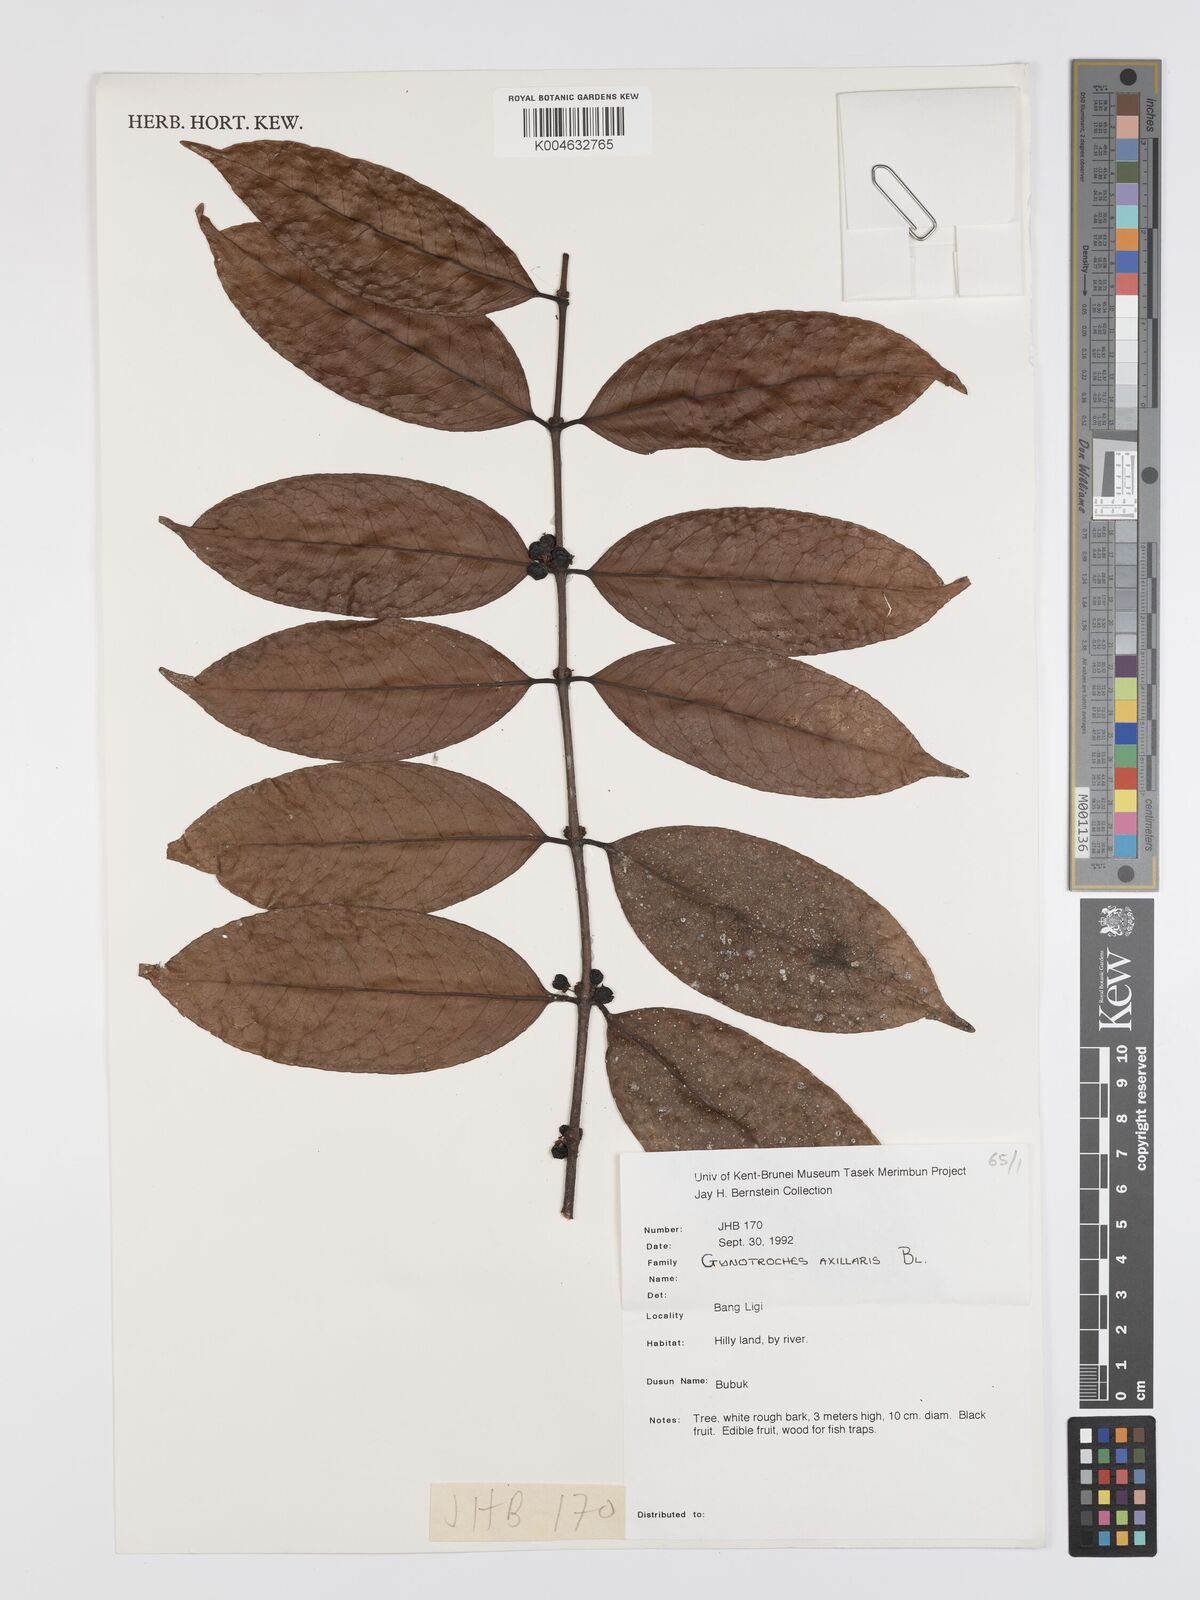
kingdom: Plantae
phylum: Tracheophyta
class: Magnoliopsida
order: Malpighiales
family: Rhizophoraceae
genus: Gynotroches
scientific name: Gynotroches axillaris
